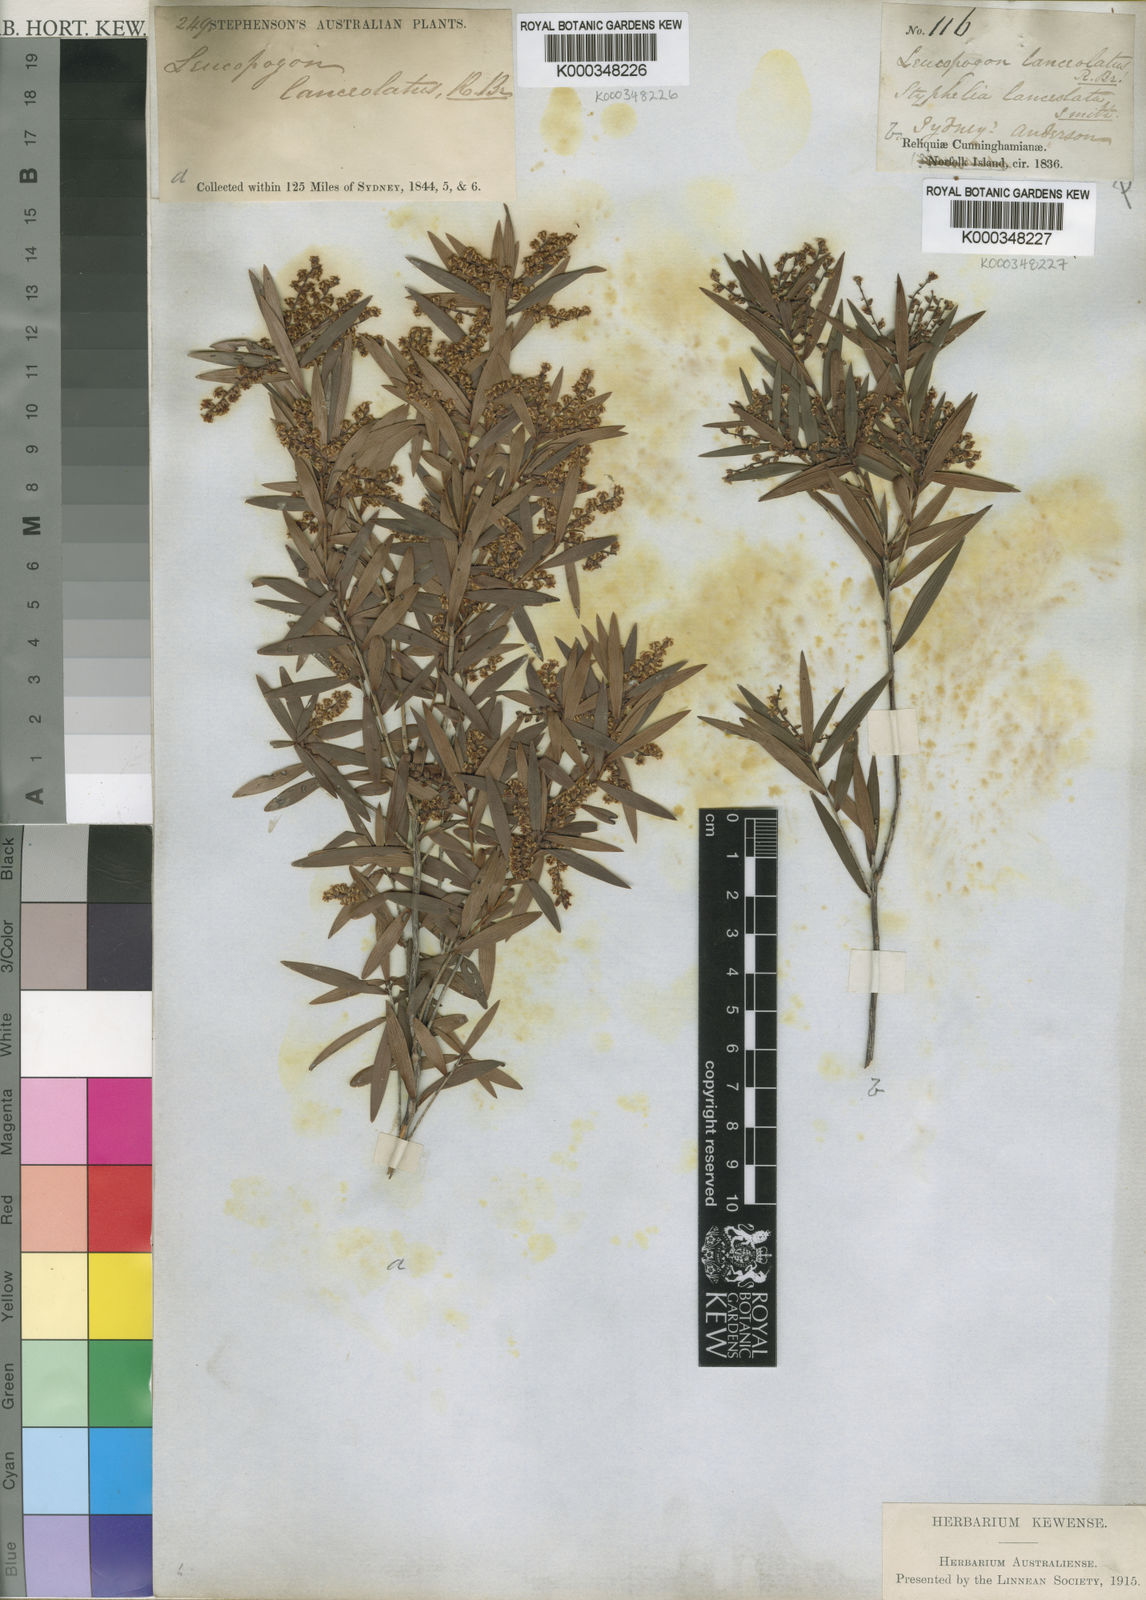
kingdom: Plantae
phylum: Tracheophyta
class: Magnoliopsida
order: Ericales
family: Ericaceae
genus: Leucopogon
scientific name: Leucopogon lanceolatus
